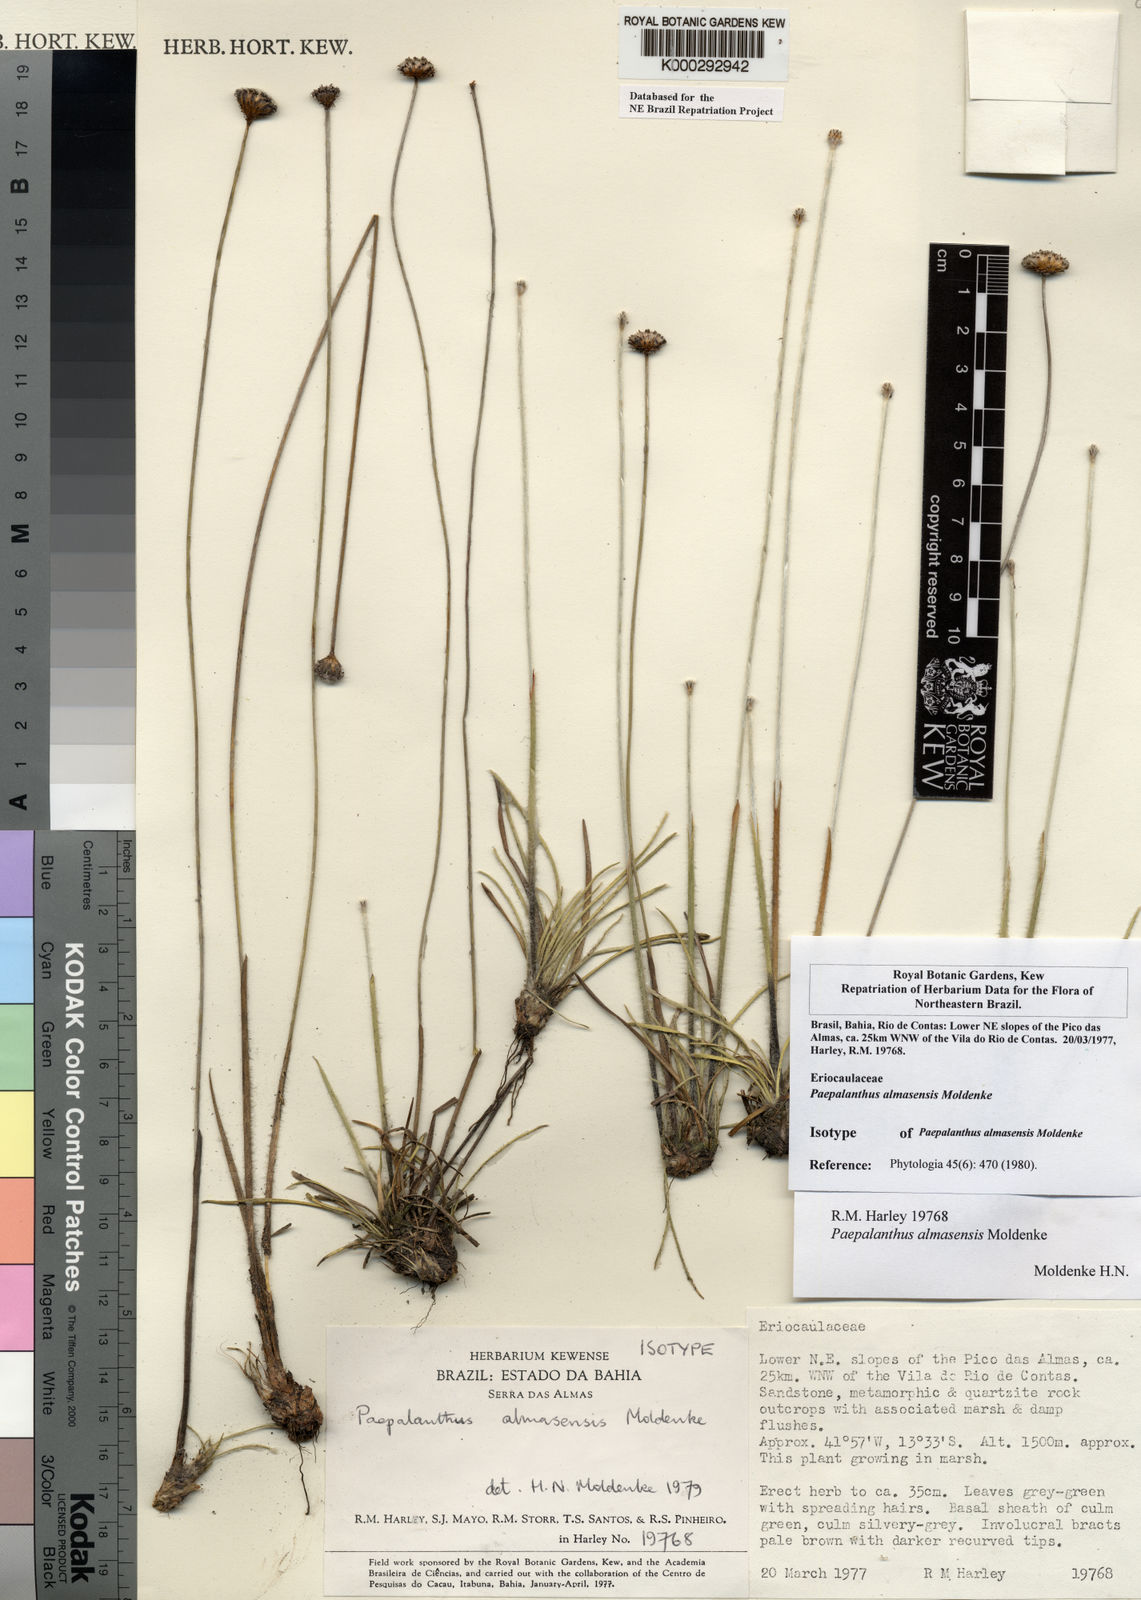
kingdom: Plantae
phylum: Tracheophyta
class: Liliopsida
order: Poales
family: Eriocaulaceae
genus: Paepalanthus
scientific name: Paepalanthus almasensis
